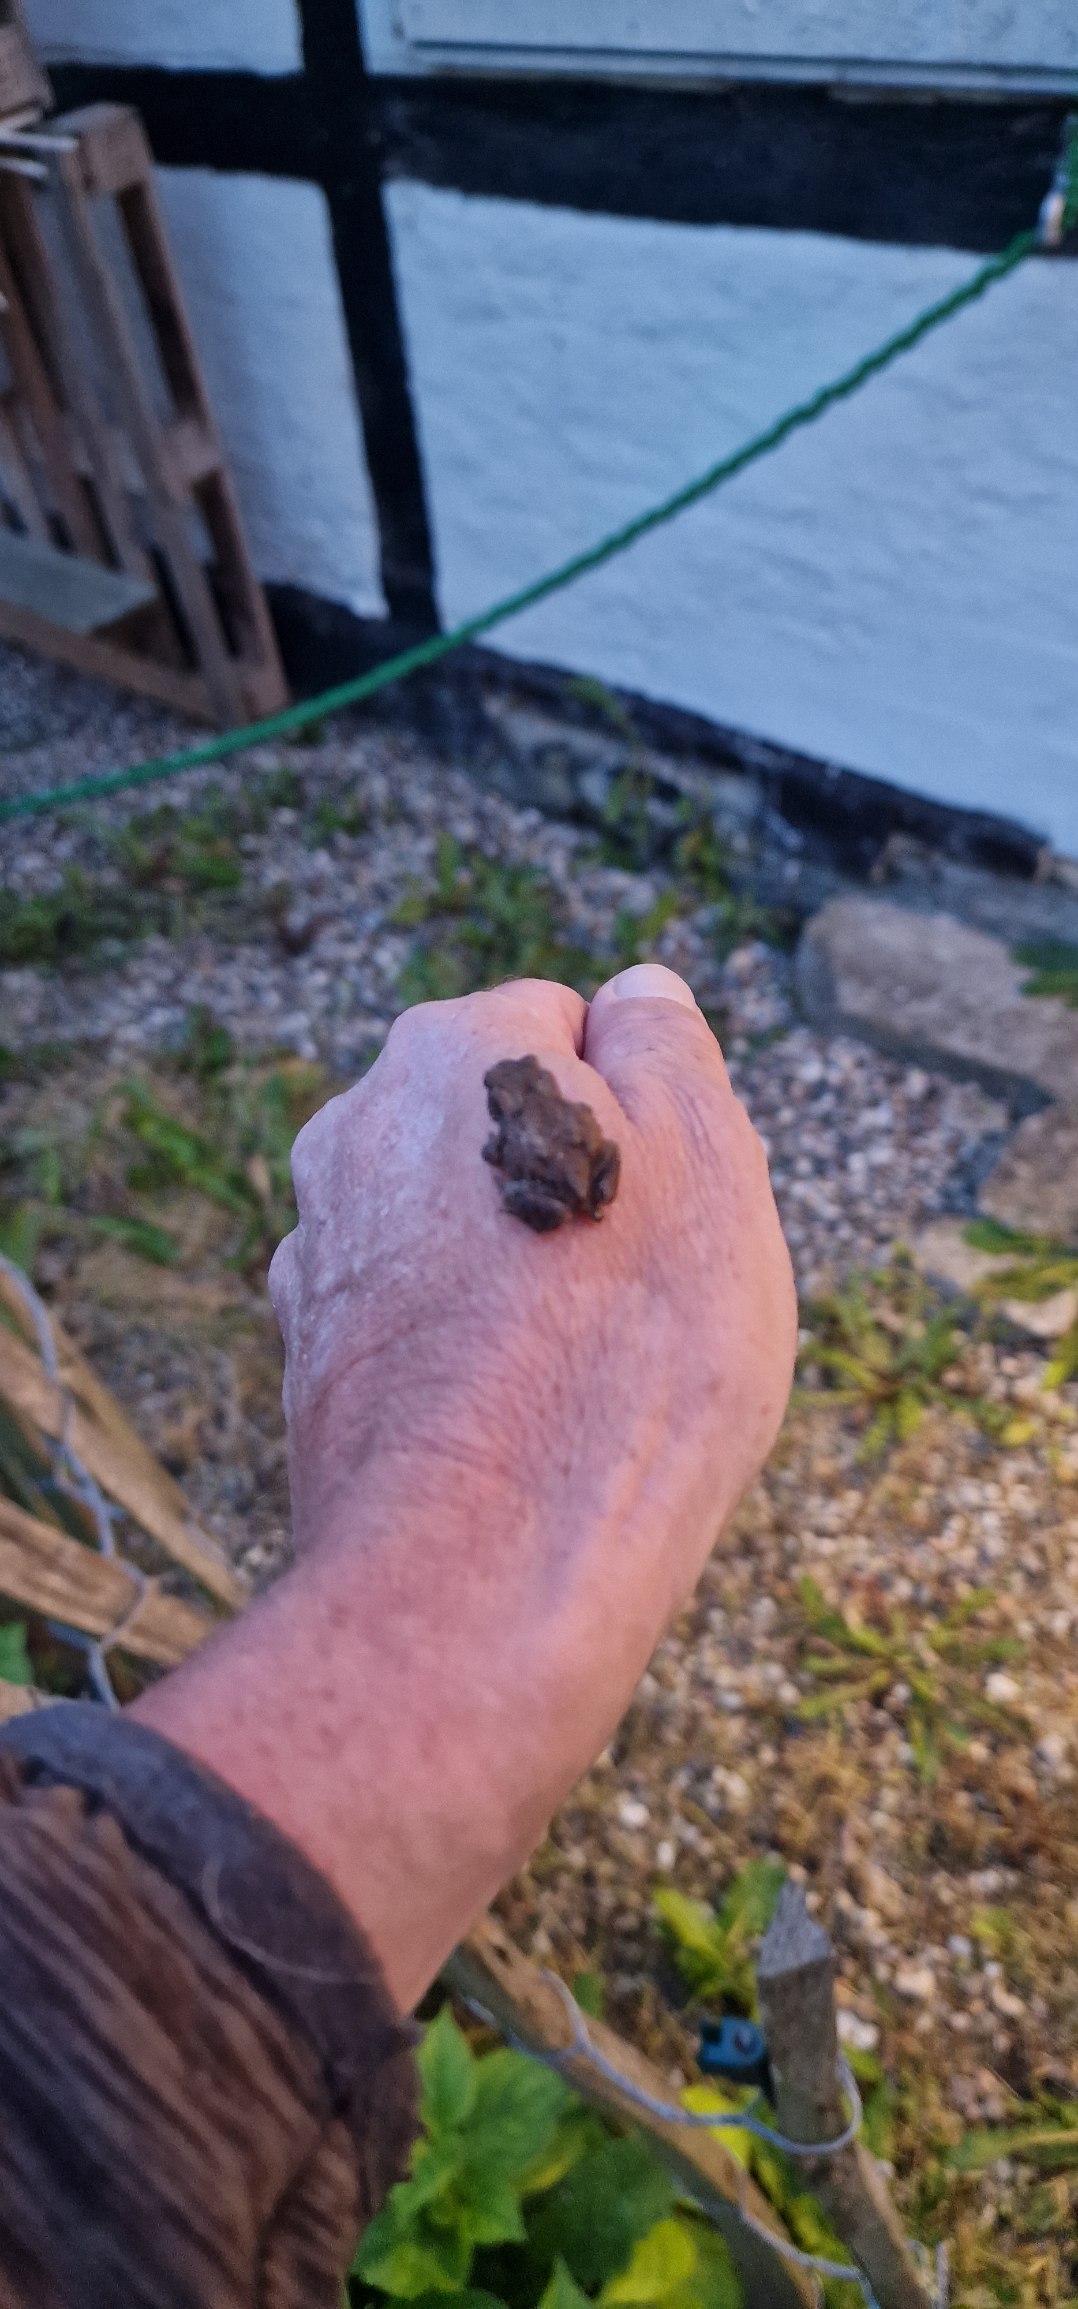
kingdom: Animalia
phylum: Chordata
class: Amphibia
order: Anura
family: Bufonidae
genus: Bufo
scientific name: Bufo bufo
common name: Skrubtudse
